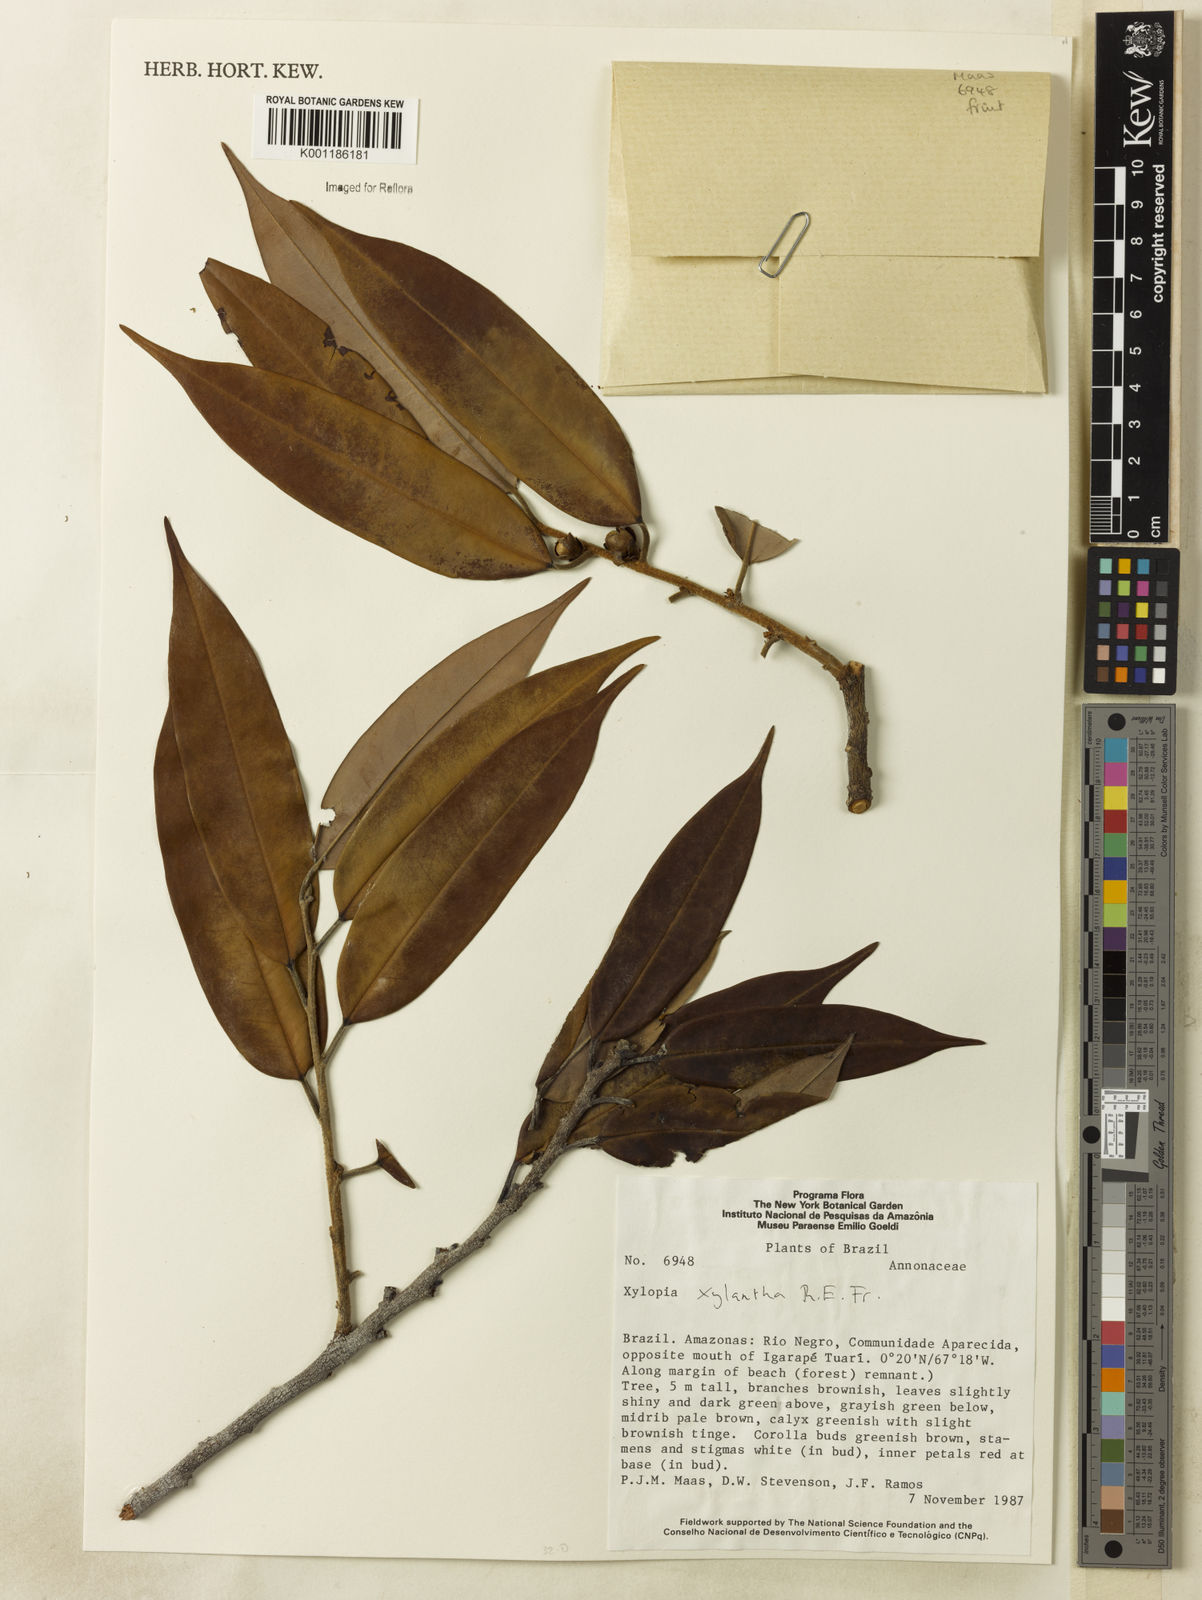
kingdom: Plantae
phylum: Tracheophyta
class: Magnoliopsida
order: Magnoliales
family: Annonaceae
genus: Xylopia
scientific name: Xylopia xylantha
